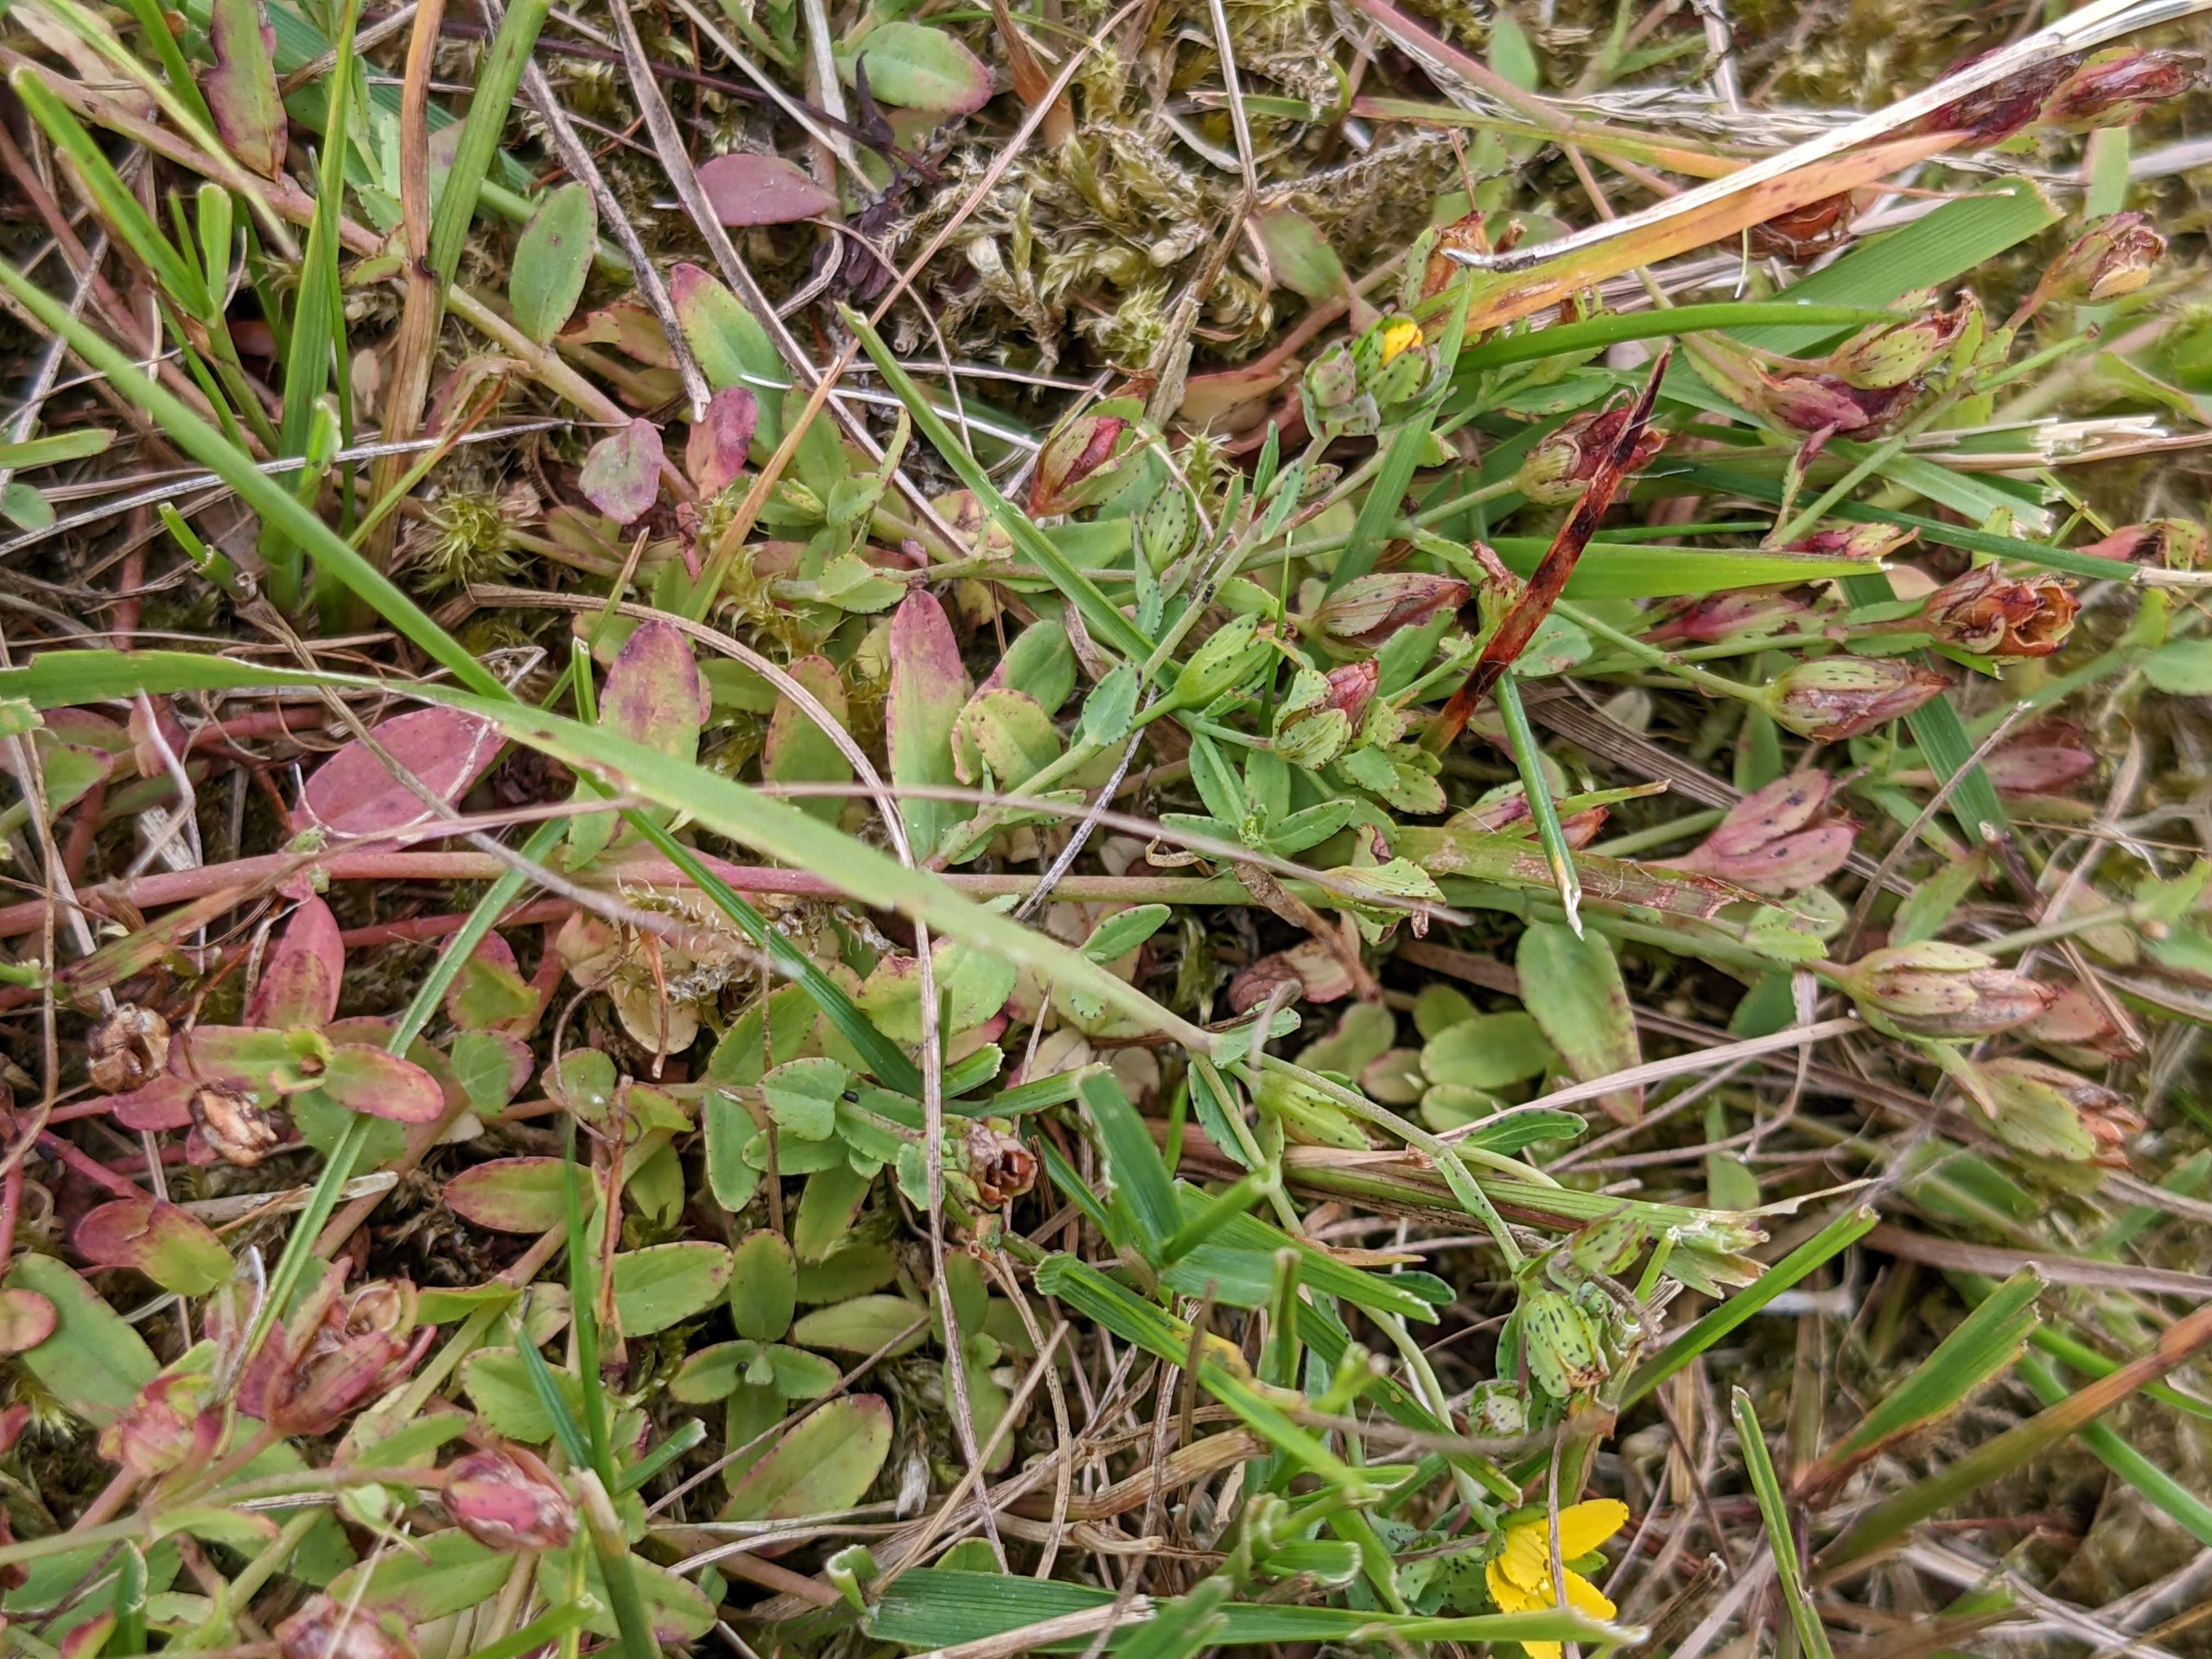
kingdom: Plantae
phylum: Tracheophyta
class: Magnoliopsida
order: Malpighiales
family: Hypericaceae
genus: Hypericum
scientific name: Hypericum humifusum
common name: Dværg-perikon
